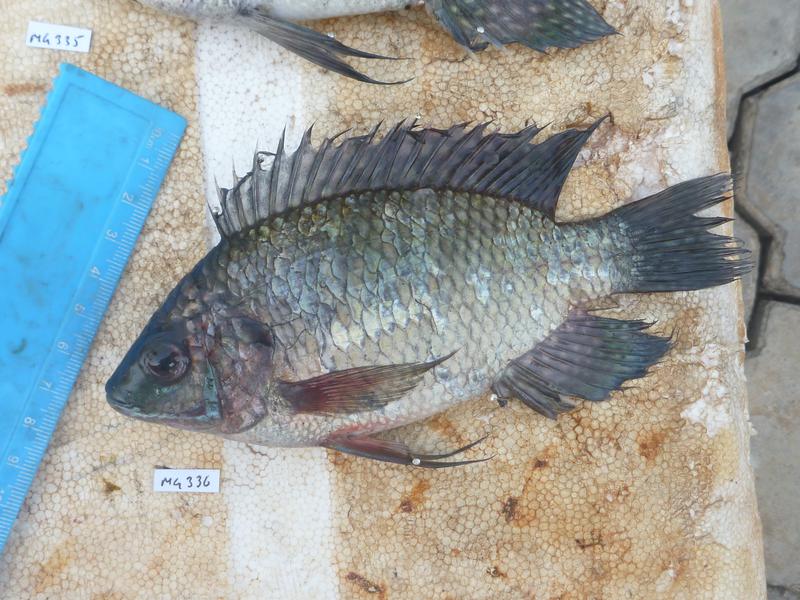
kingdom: Animalia
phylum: Chordata
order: Perciformes
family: Cichlidae
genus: Oreochromis
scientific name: Oreochromis leucostictus
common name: Blue spotted tilapia
